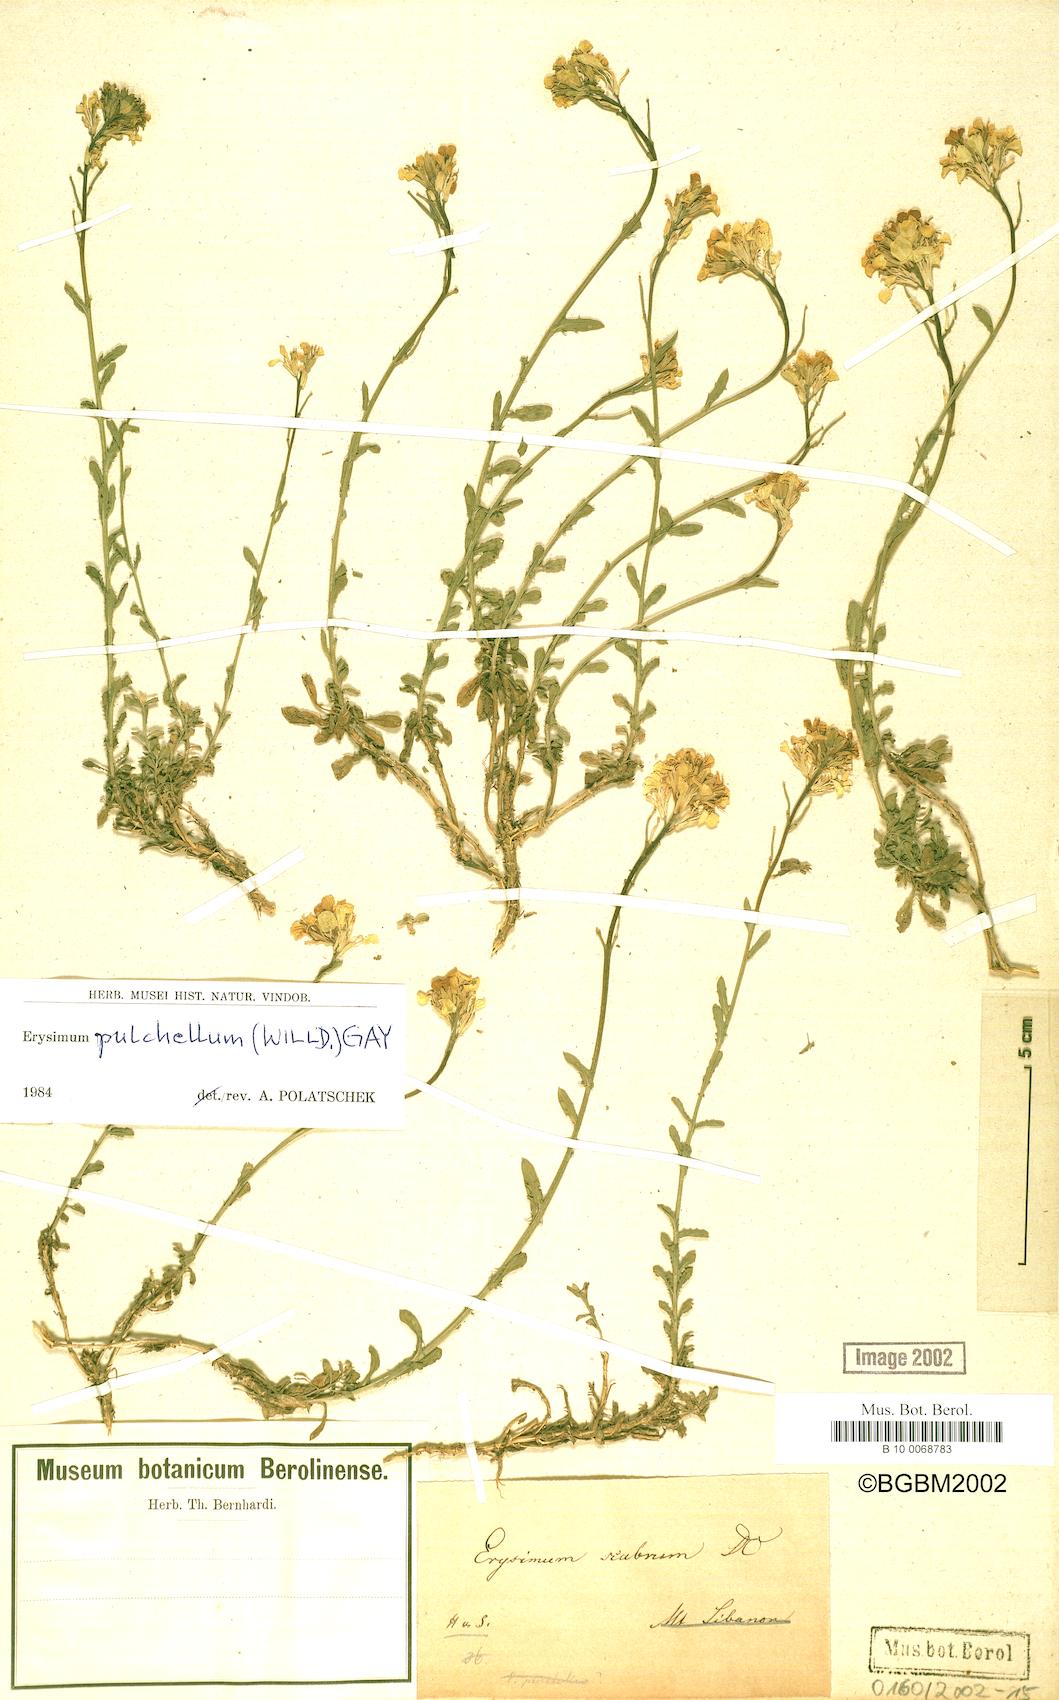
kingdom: Plantae
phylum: Tracheophyta
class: Magnoliopsida
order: Brassicales
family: Brassicaceae
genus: Erysimum
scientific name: Erysimum pulchellum
